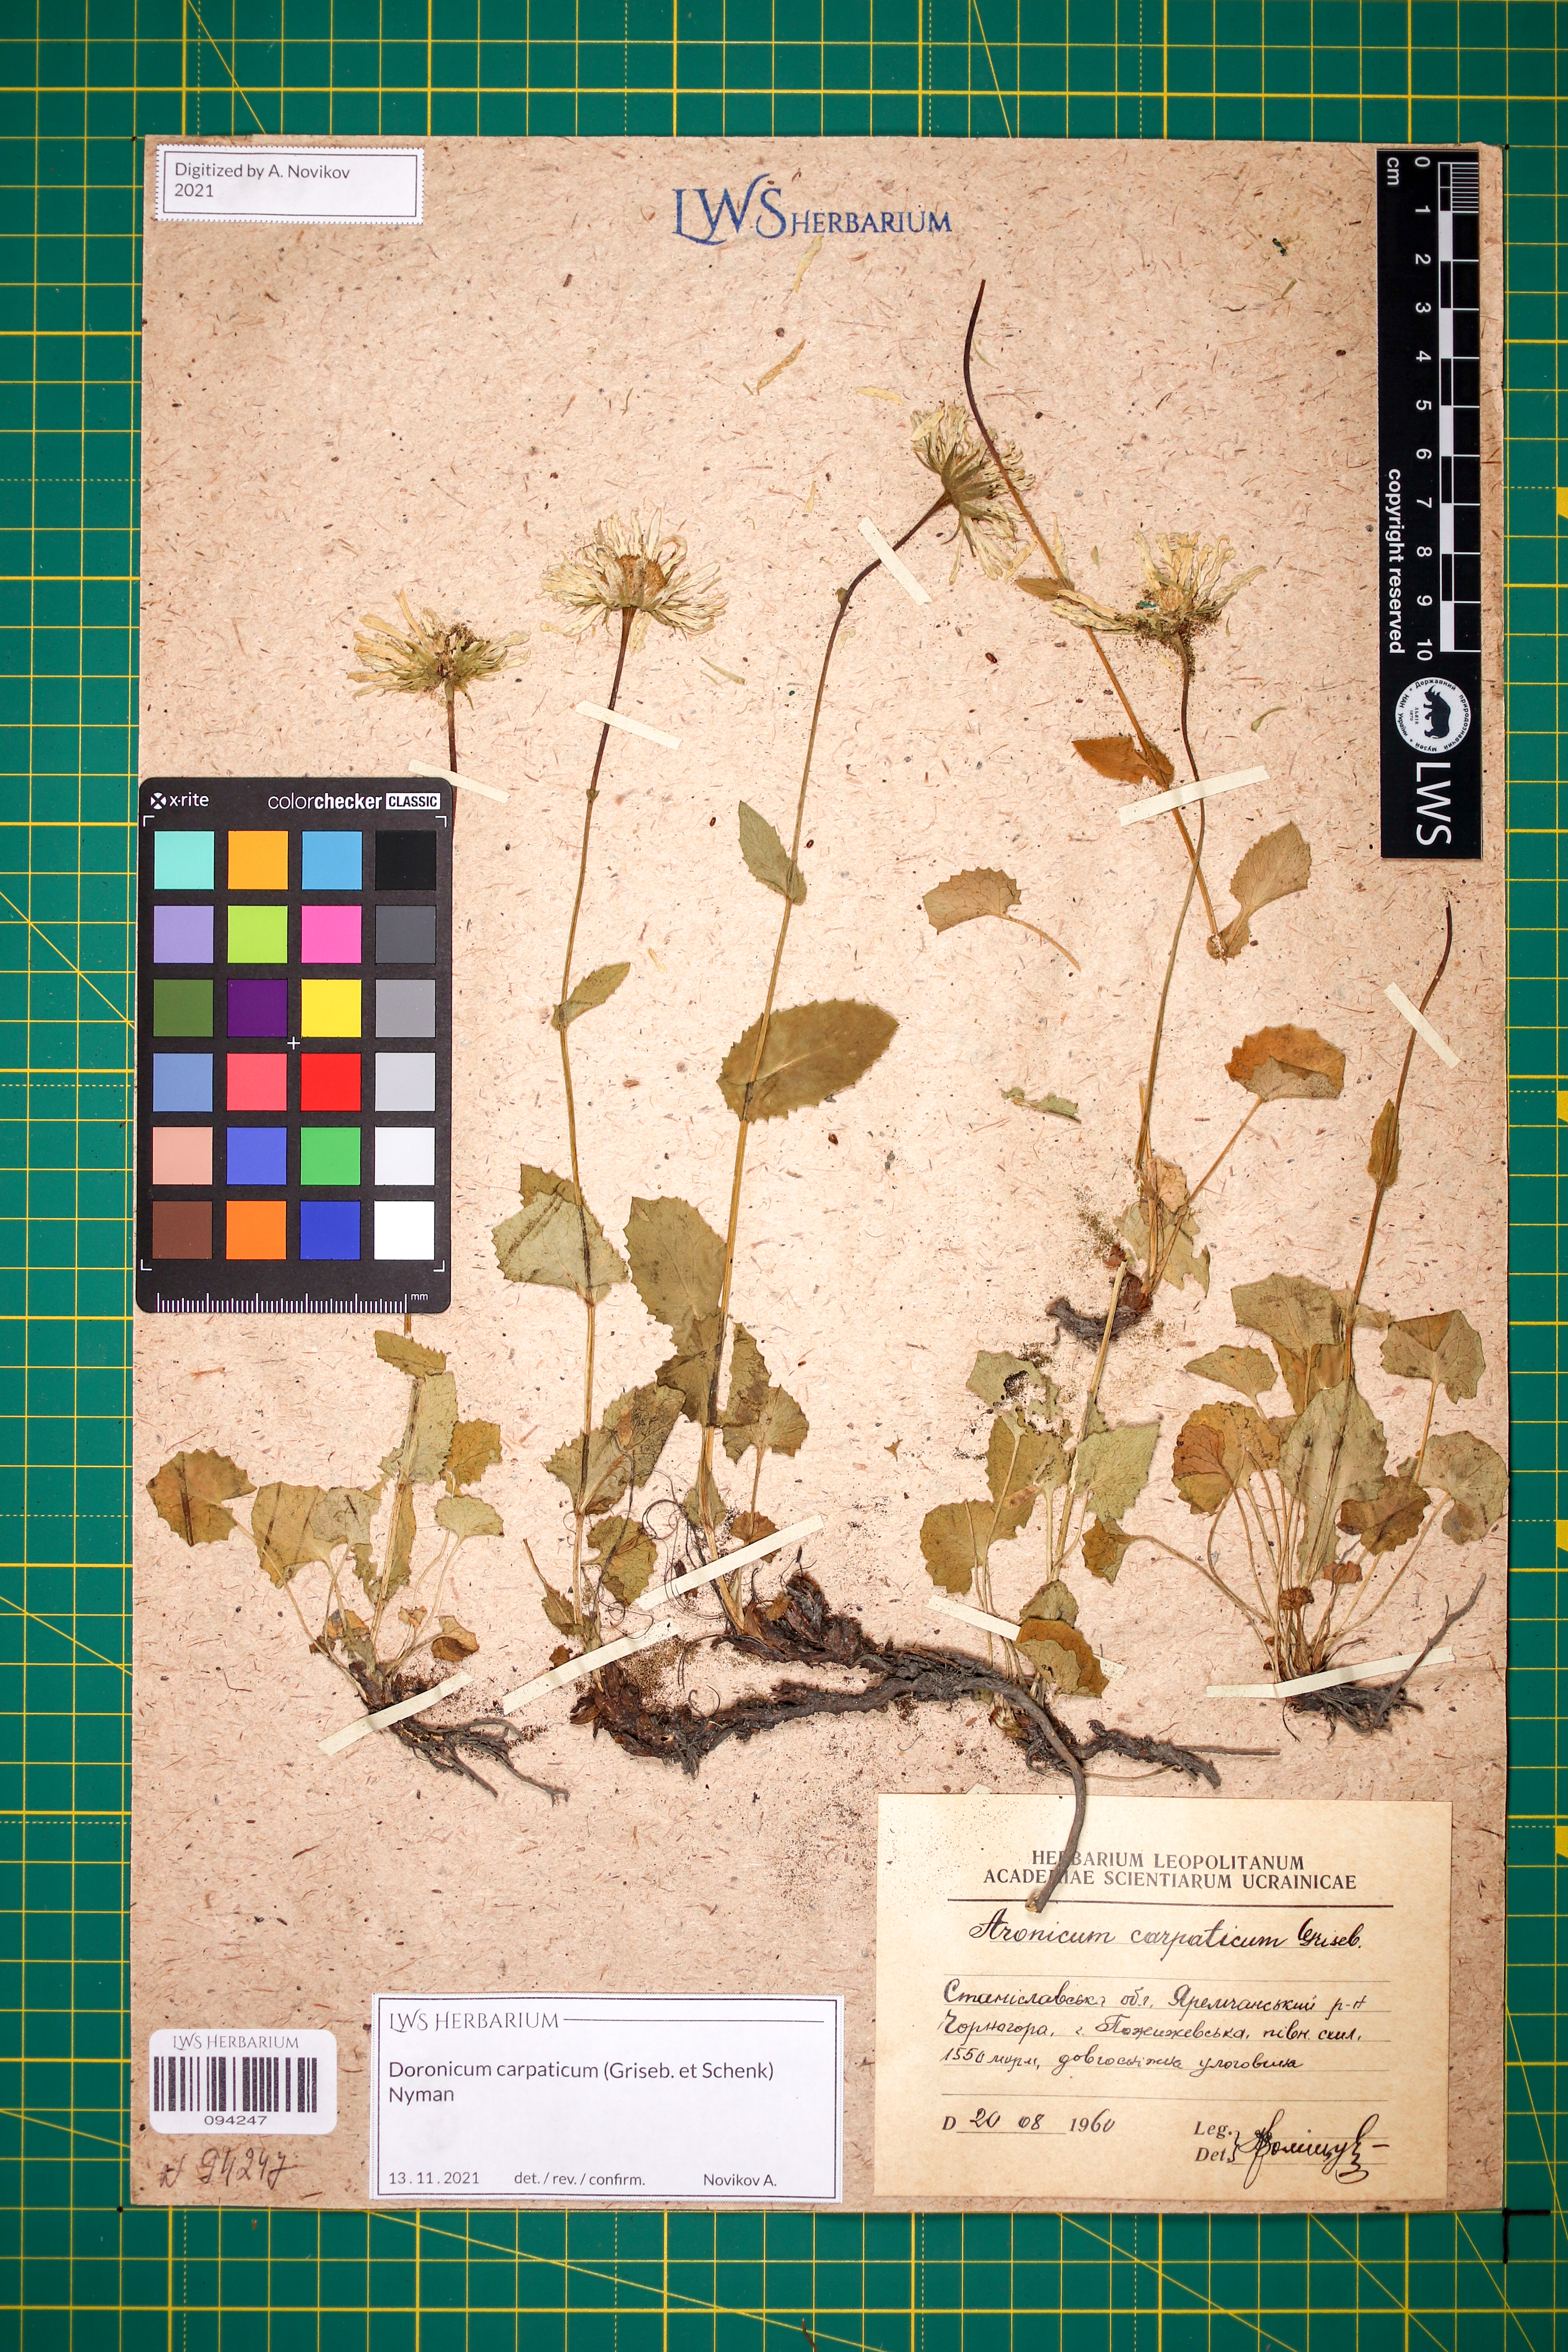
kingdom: Plantae
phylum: Tracheophyta
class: Magnoliopsida
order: Asterales
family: Asteraceae
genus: Doronicum
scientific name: Doronicum carpaticum
